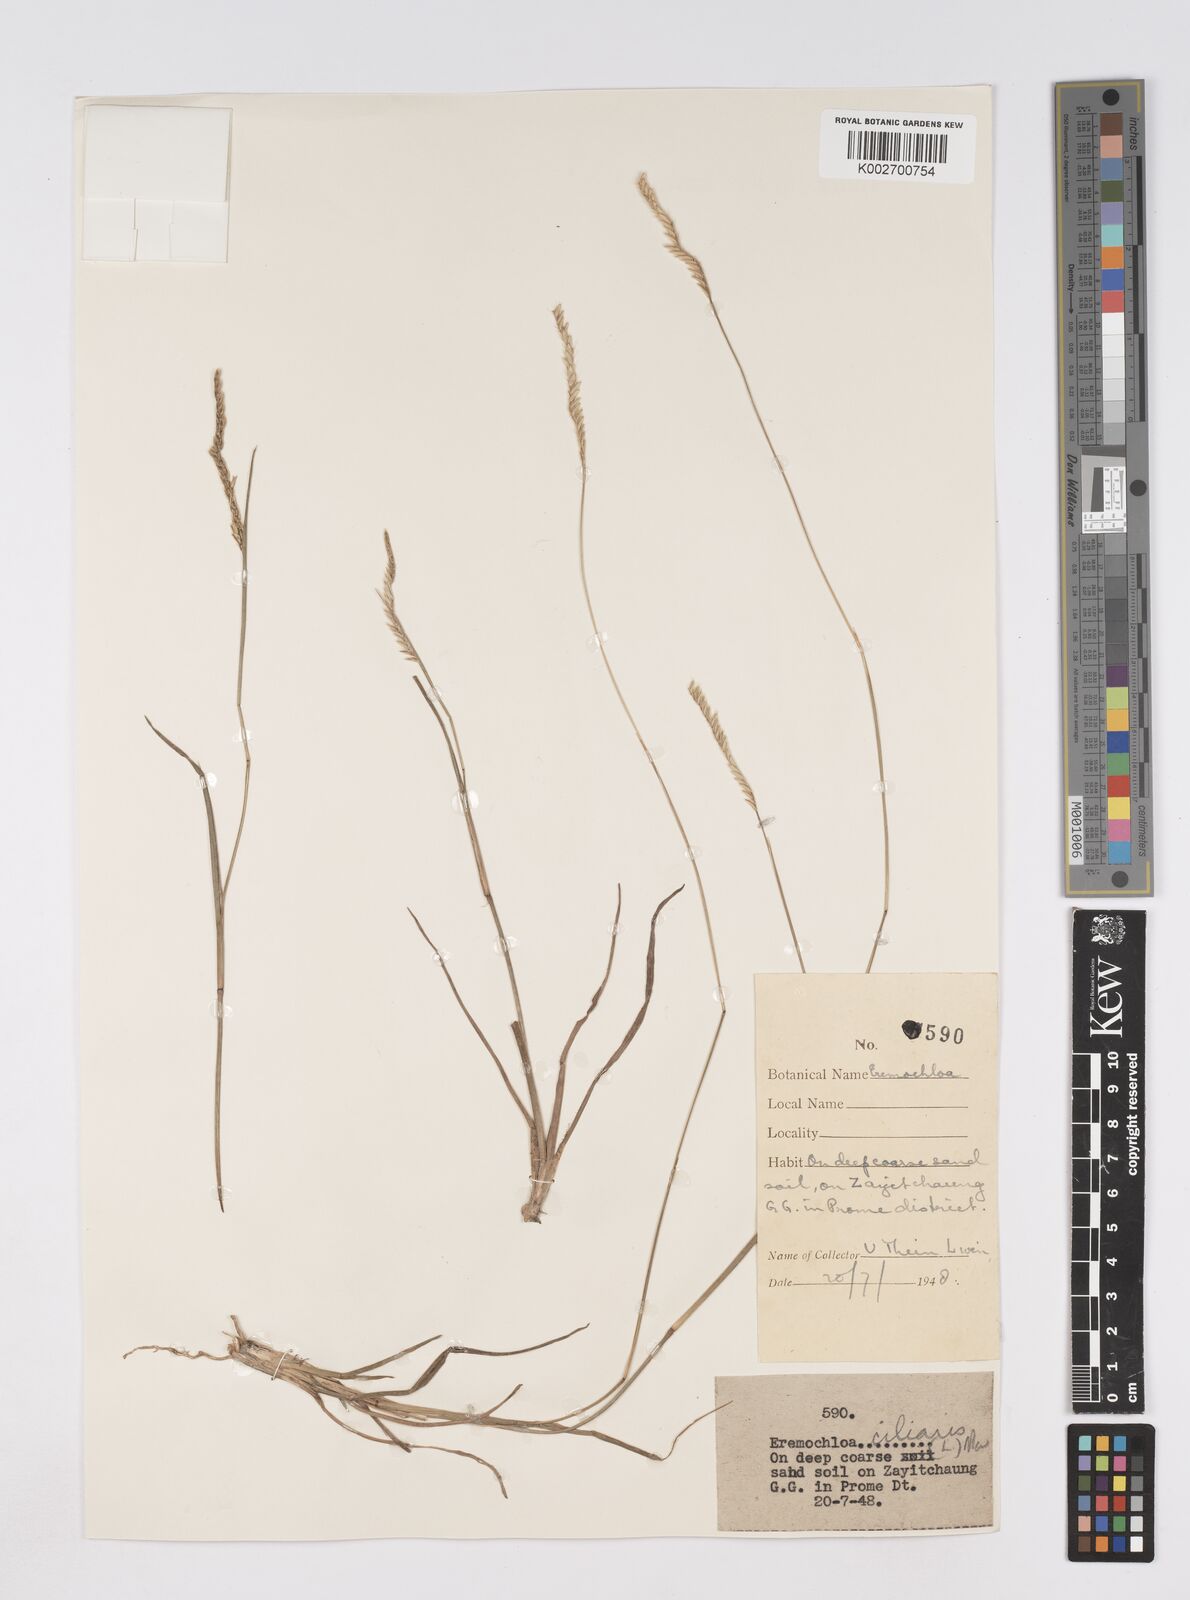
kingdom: Plantae
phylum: Tracheophyta
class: Liliopsida
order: Poales
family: Poaceae
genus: Eremochloa
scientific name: Eremochloa ciliaris
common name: Fringed centipede grass
